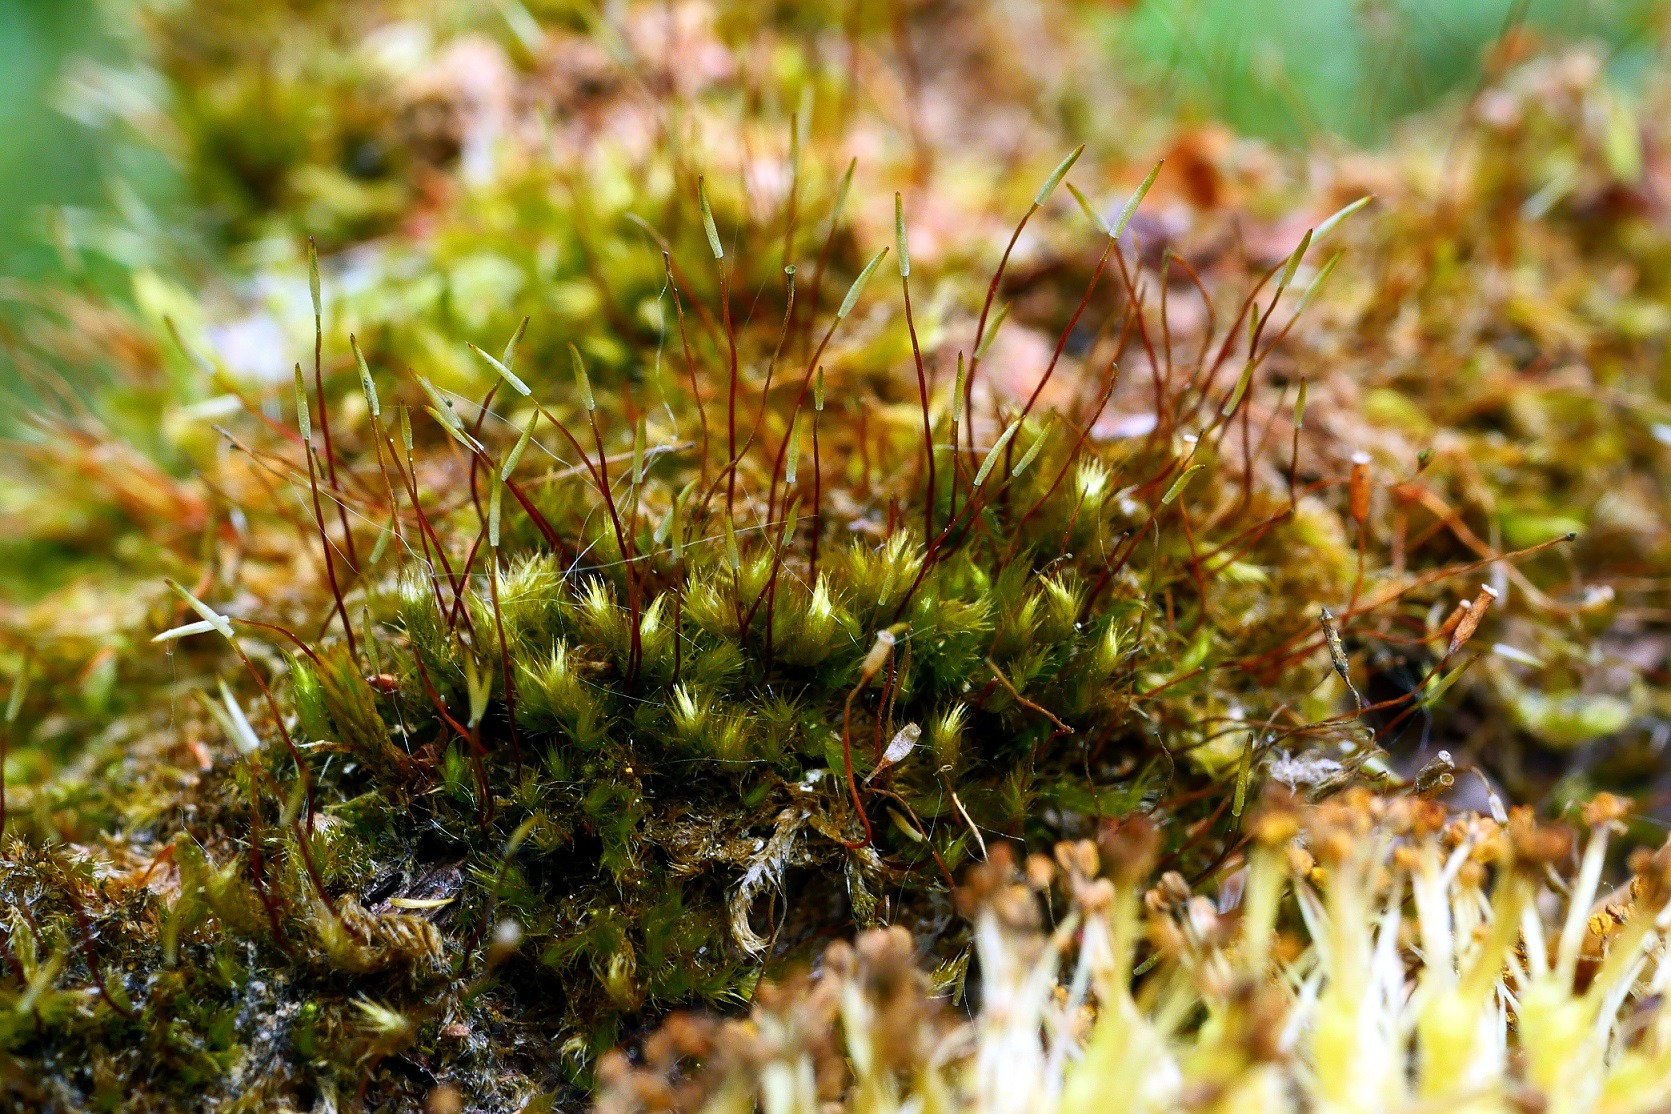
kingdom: Plantae
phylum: Bryophyta
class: Bryopsida
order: Hypnales
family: Pylaisiaceae
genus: Pylaisia
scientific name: Pylaisia polyantha
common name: Mangefrugtet aspemos
